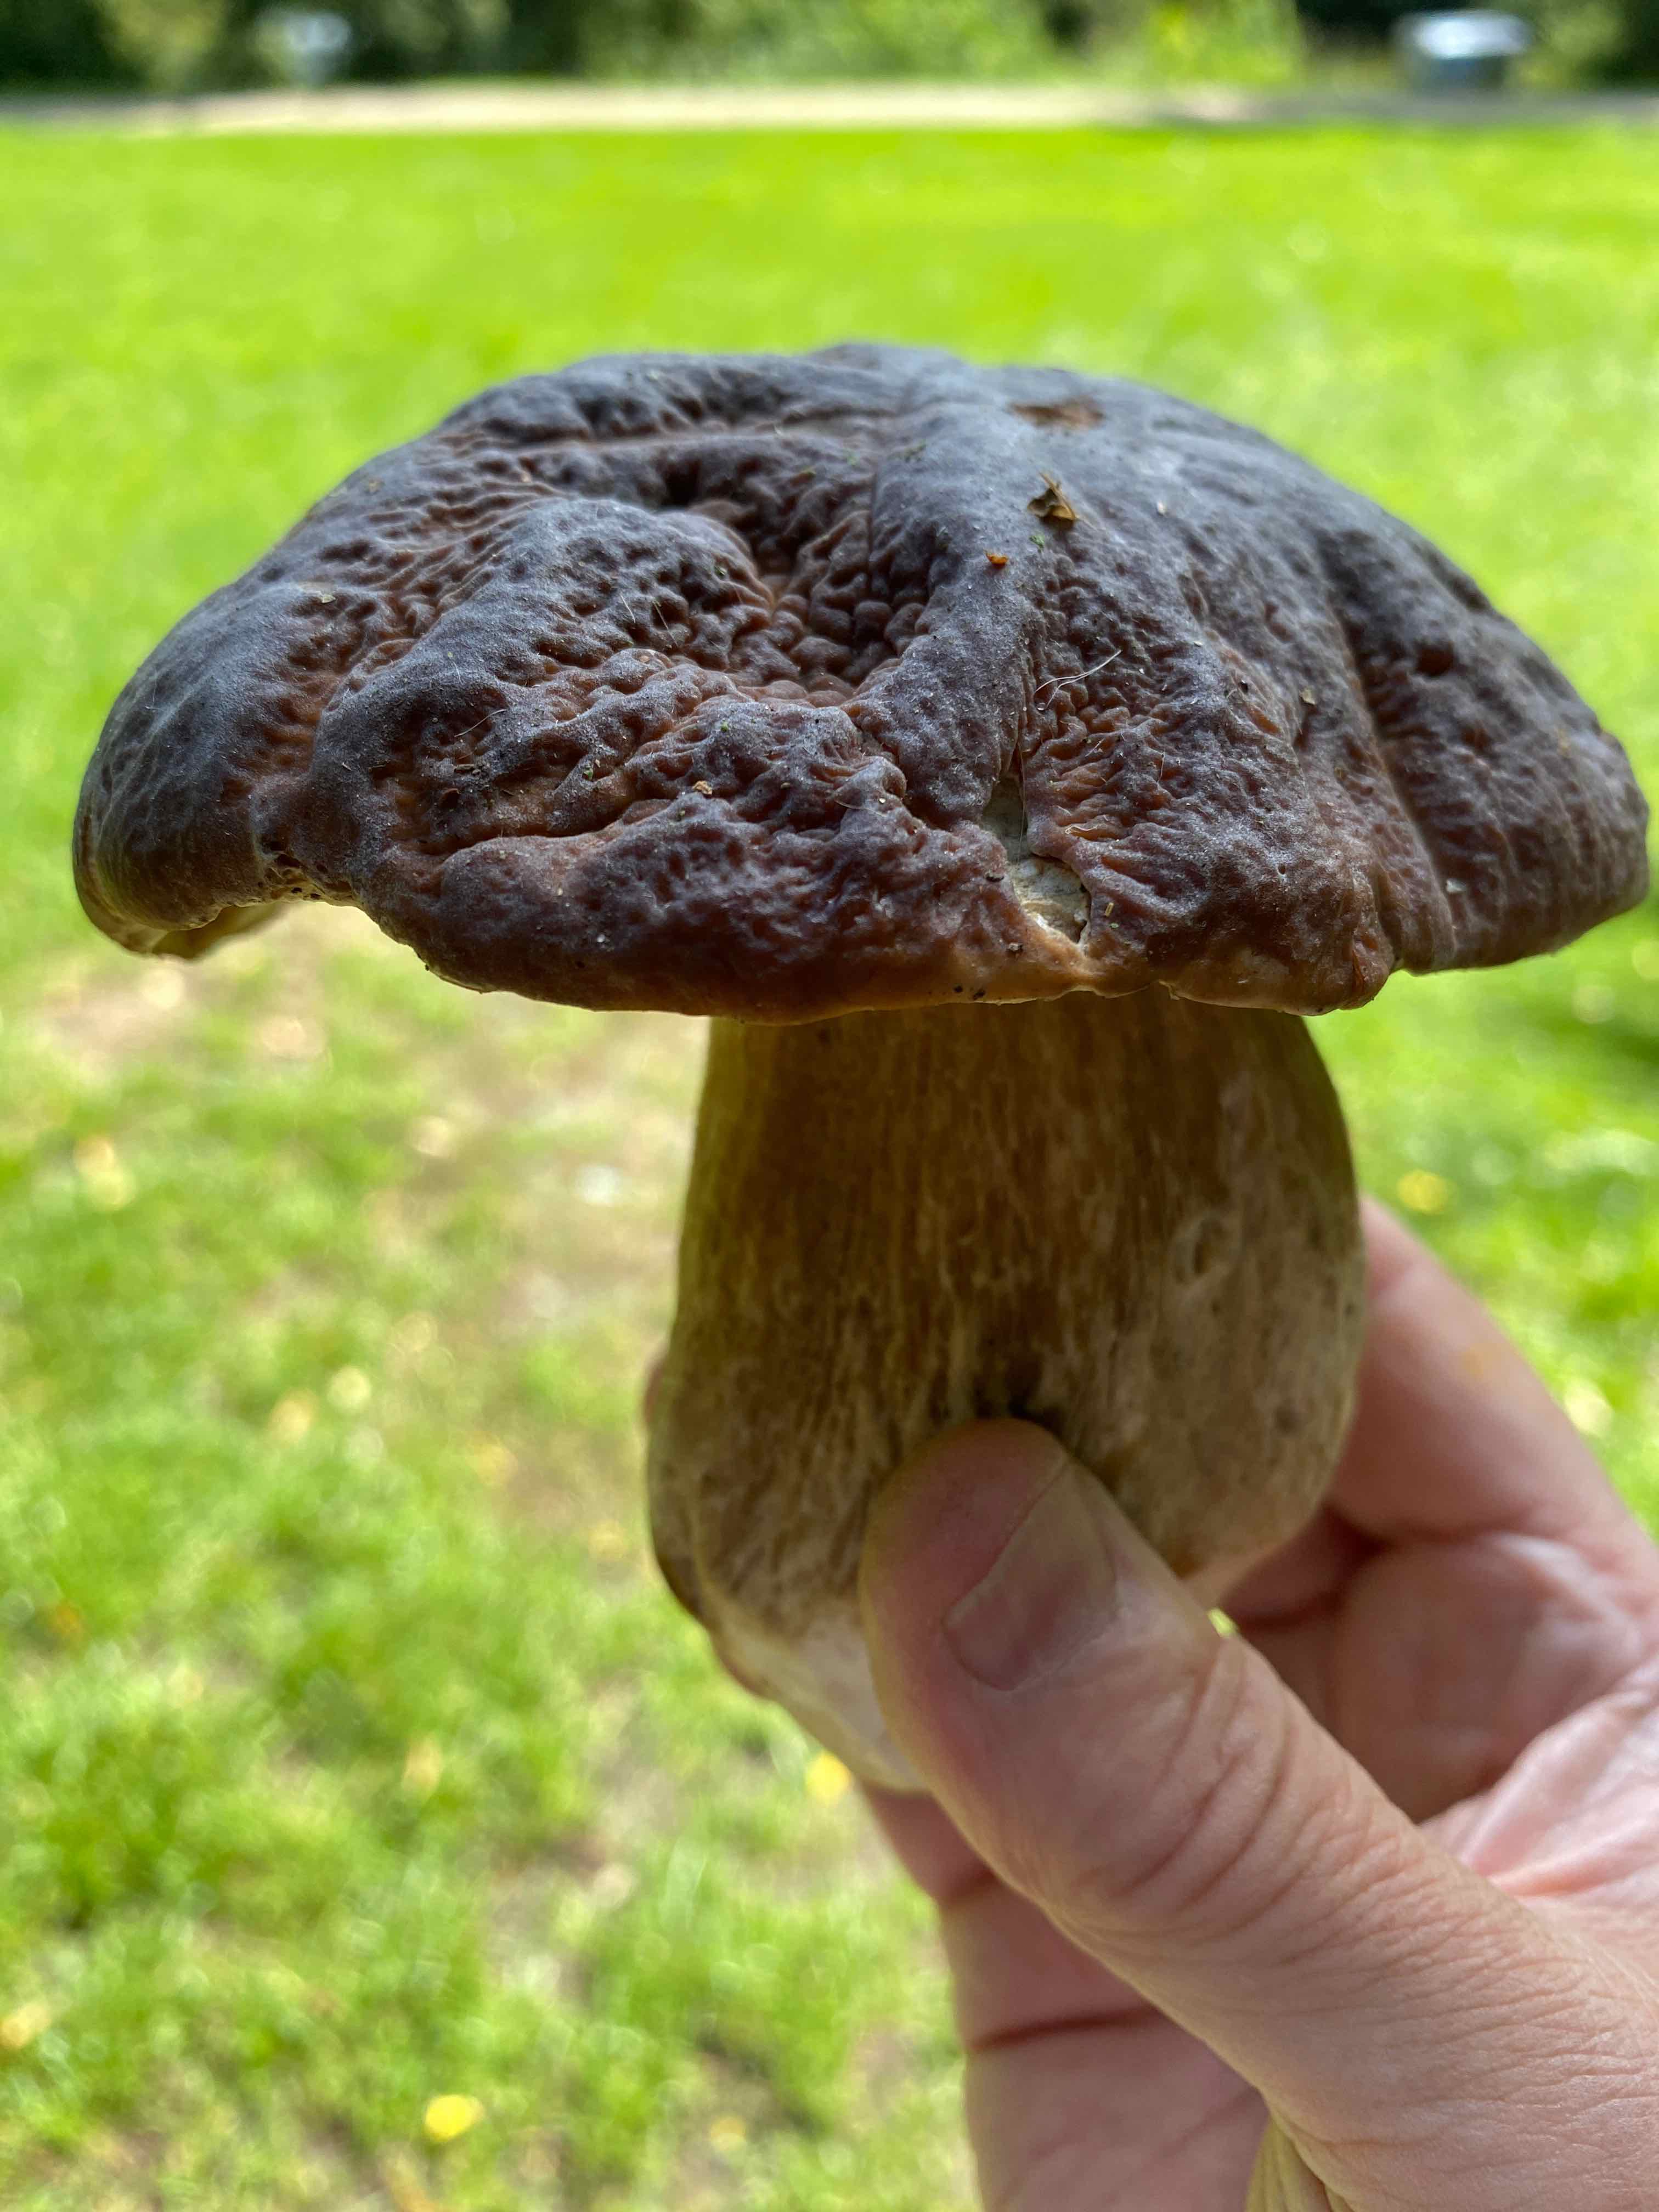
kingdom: Fungi
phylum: Basidiomycota
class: Agaricomycetes
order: Boletales
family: Boletaceae
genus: Boletus
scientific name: Boletus edulis
